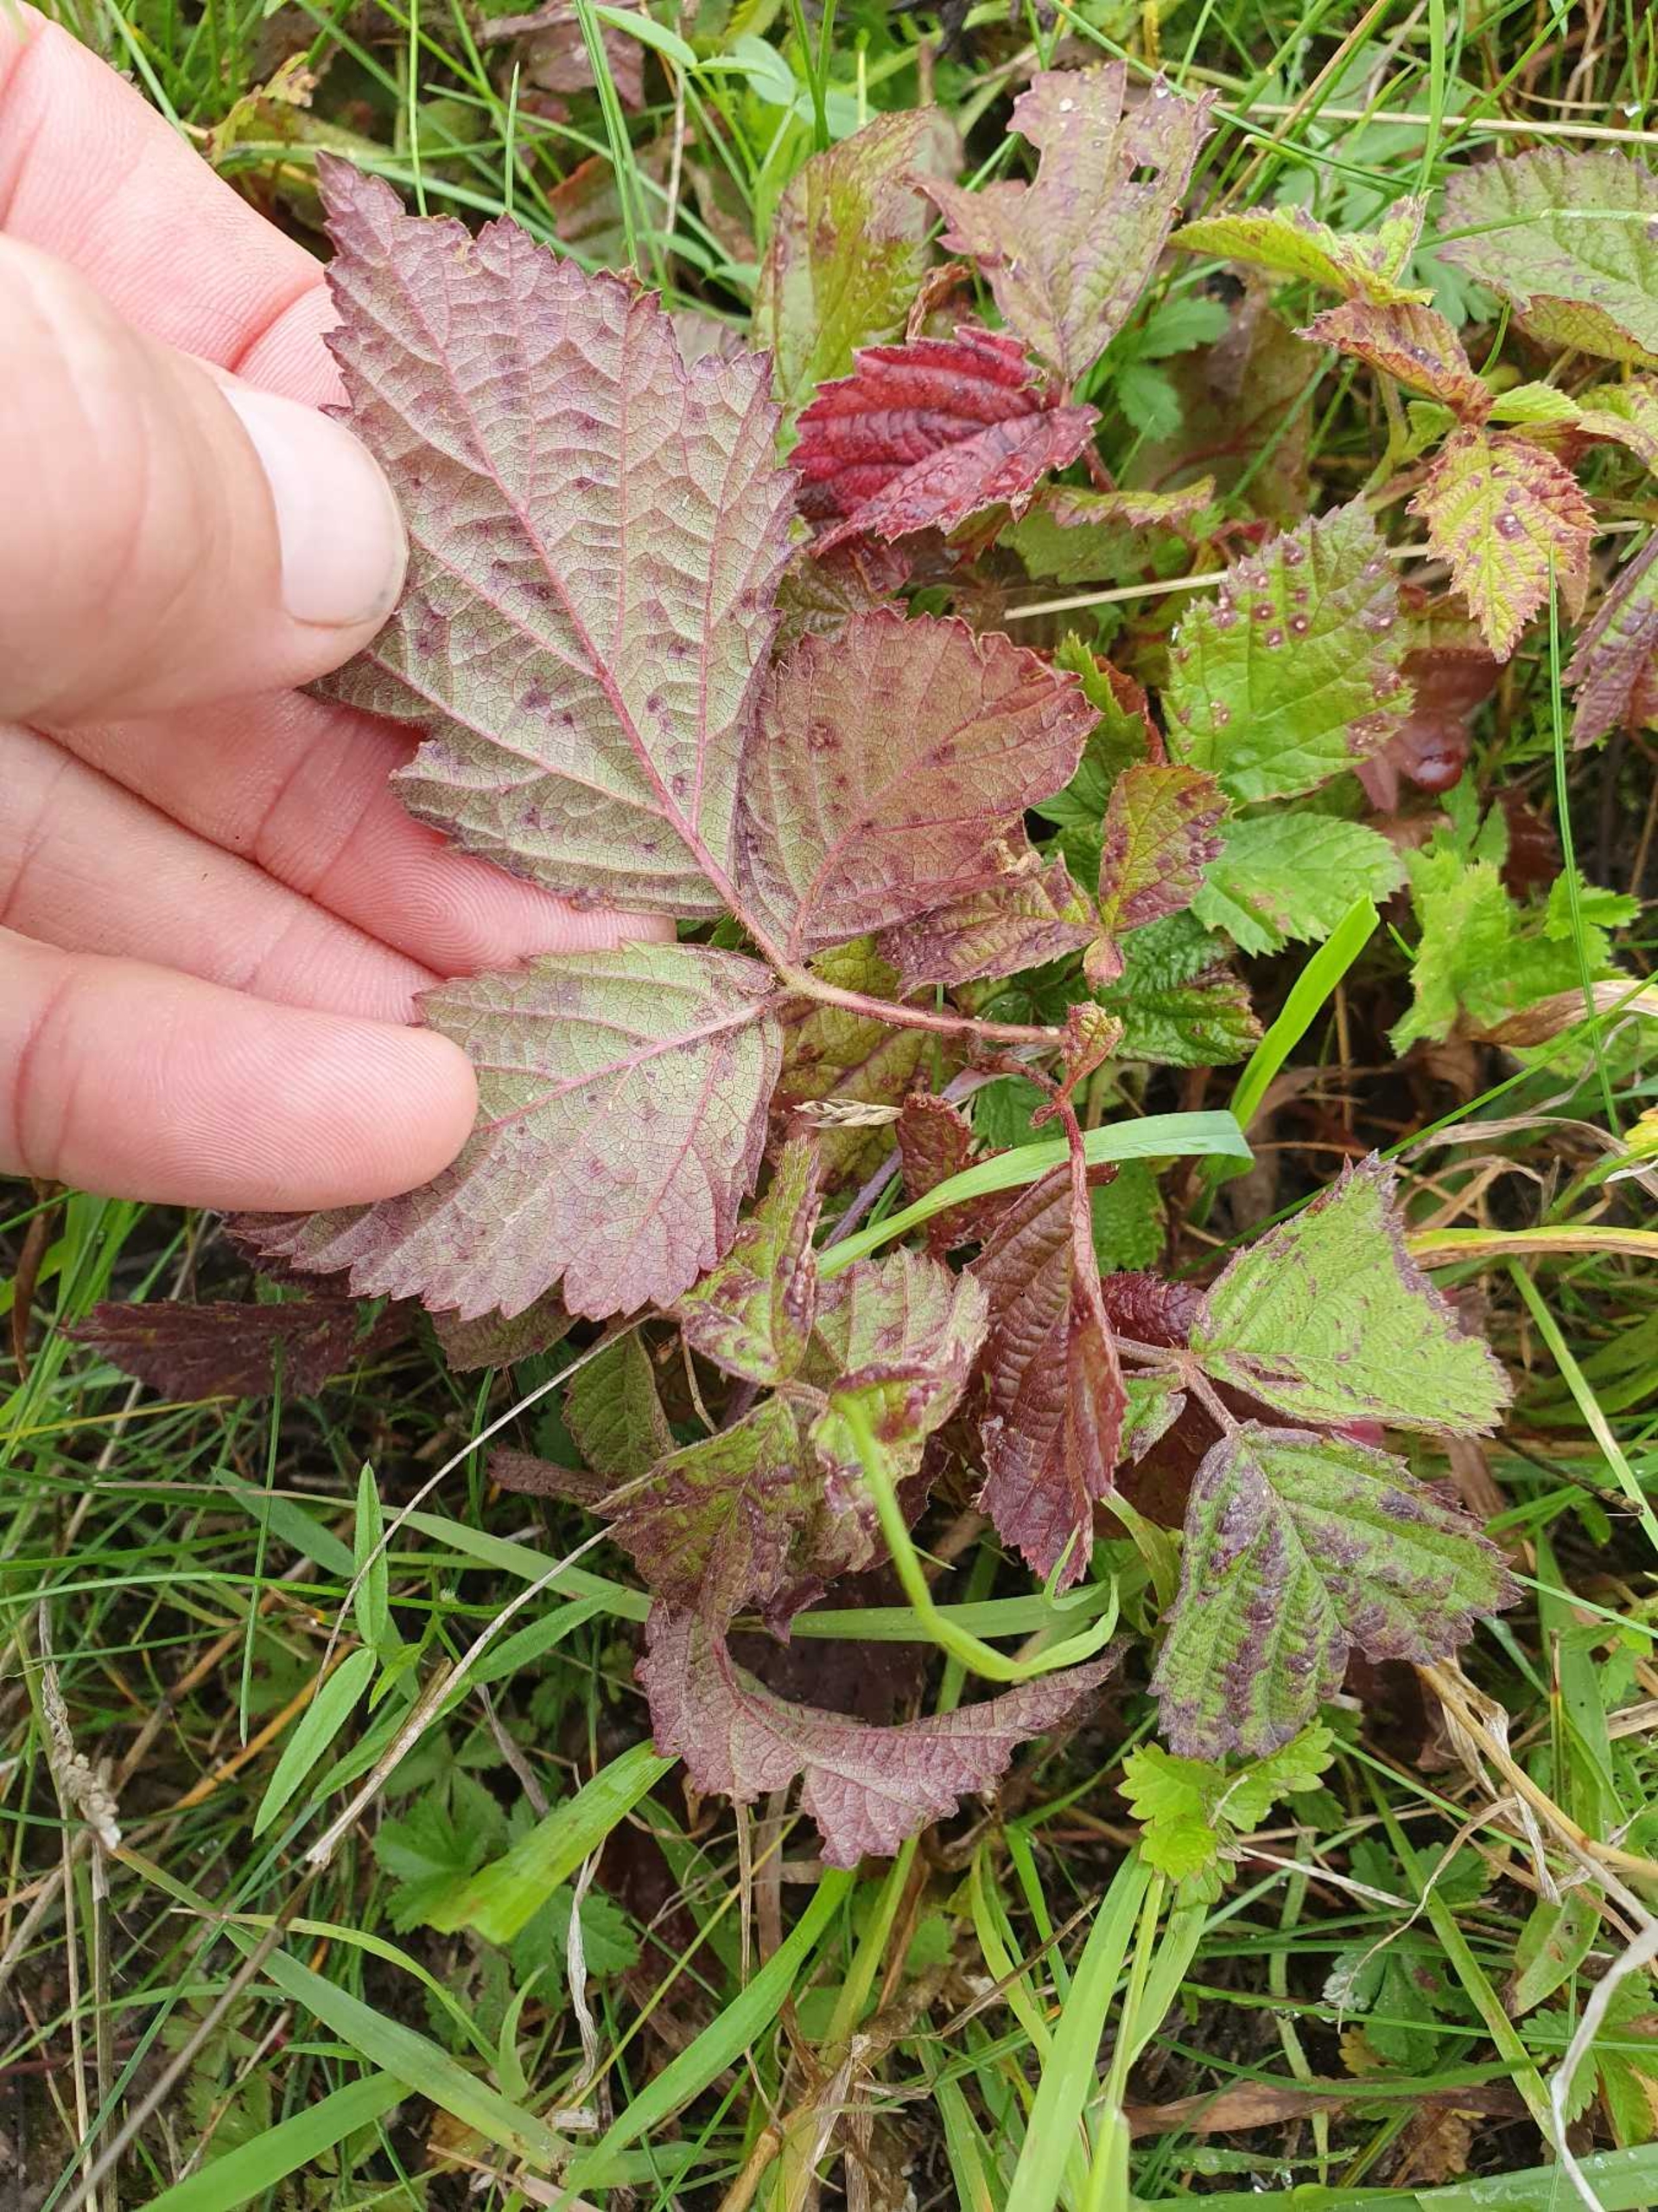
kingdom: Plantae
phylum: Tracheophyta
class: Magnoliopsida
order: Rosales
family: Rosaceae
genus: Rubus
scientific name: Rubus caesius
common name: Korbær
